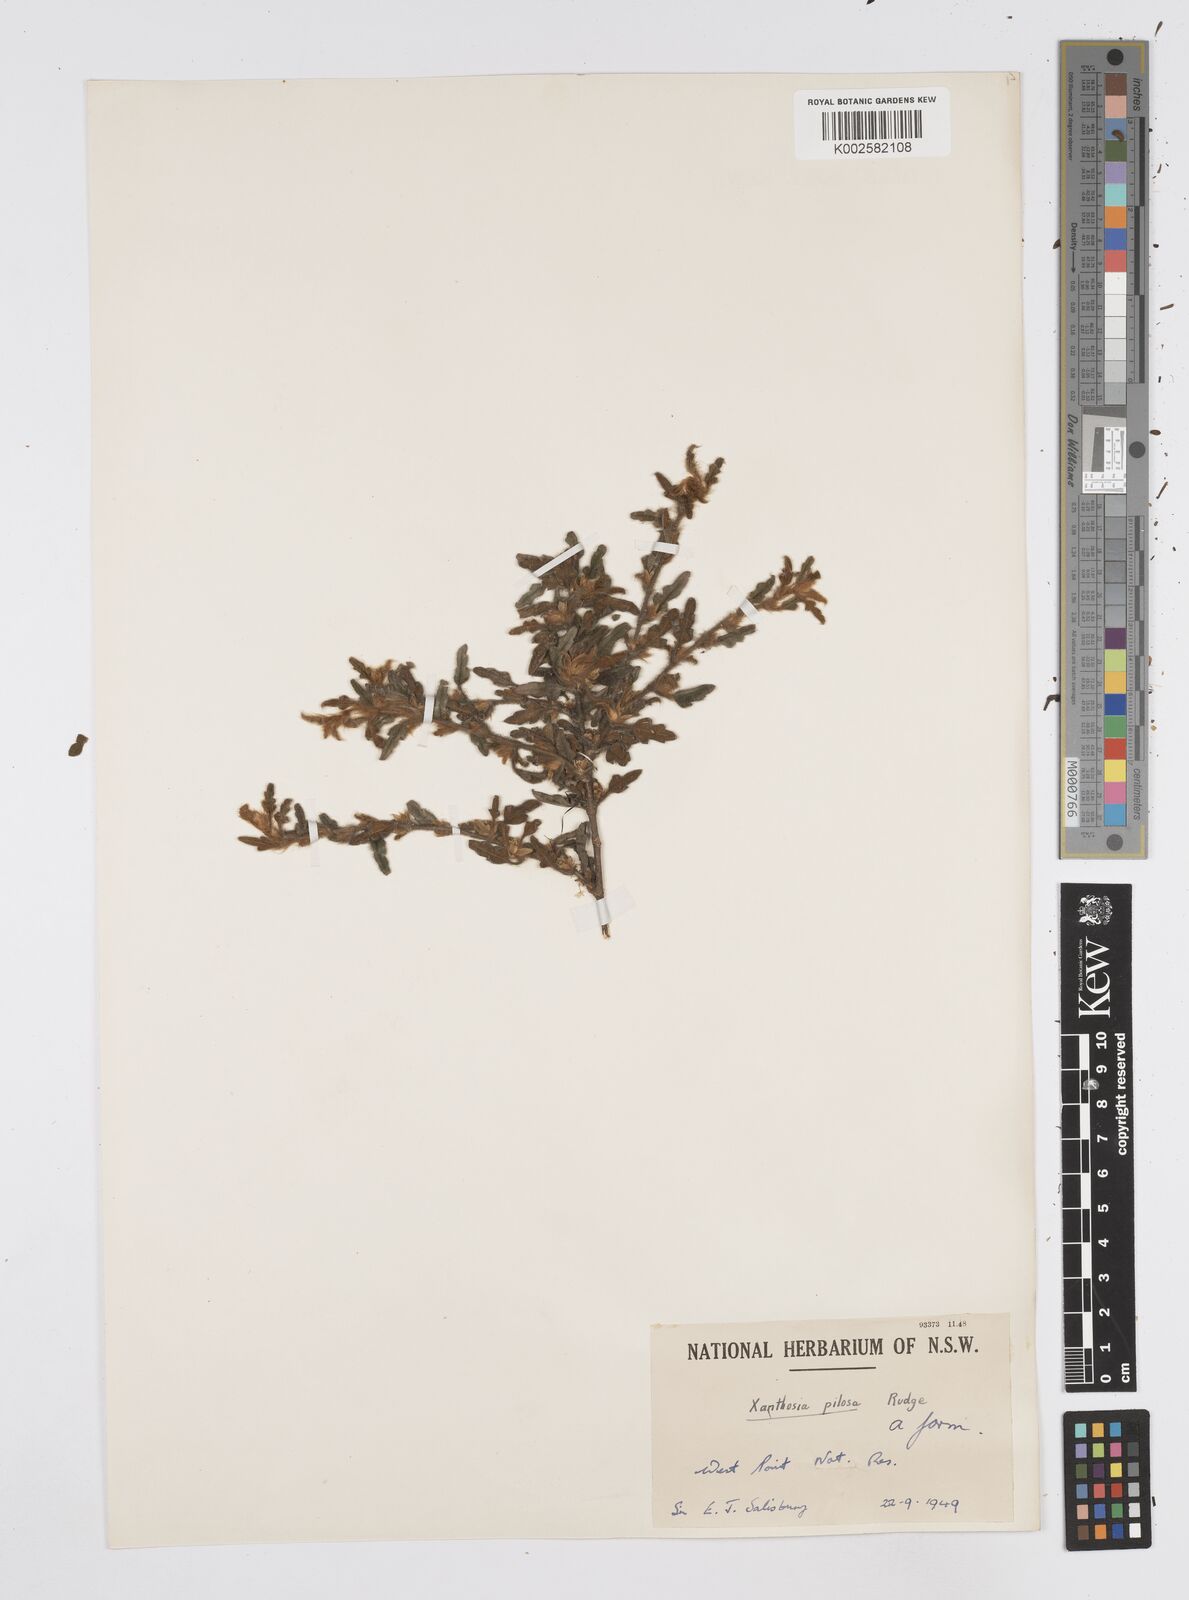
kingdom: Plantae
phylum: Tracheophyta
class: Magnoliopsida
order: Apiales
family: Apiaceae
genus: Xanthosia
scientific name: Xanthosia pilosa
